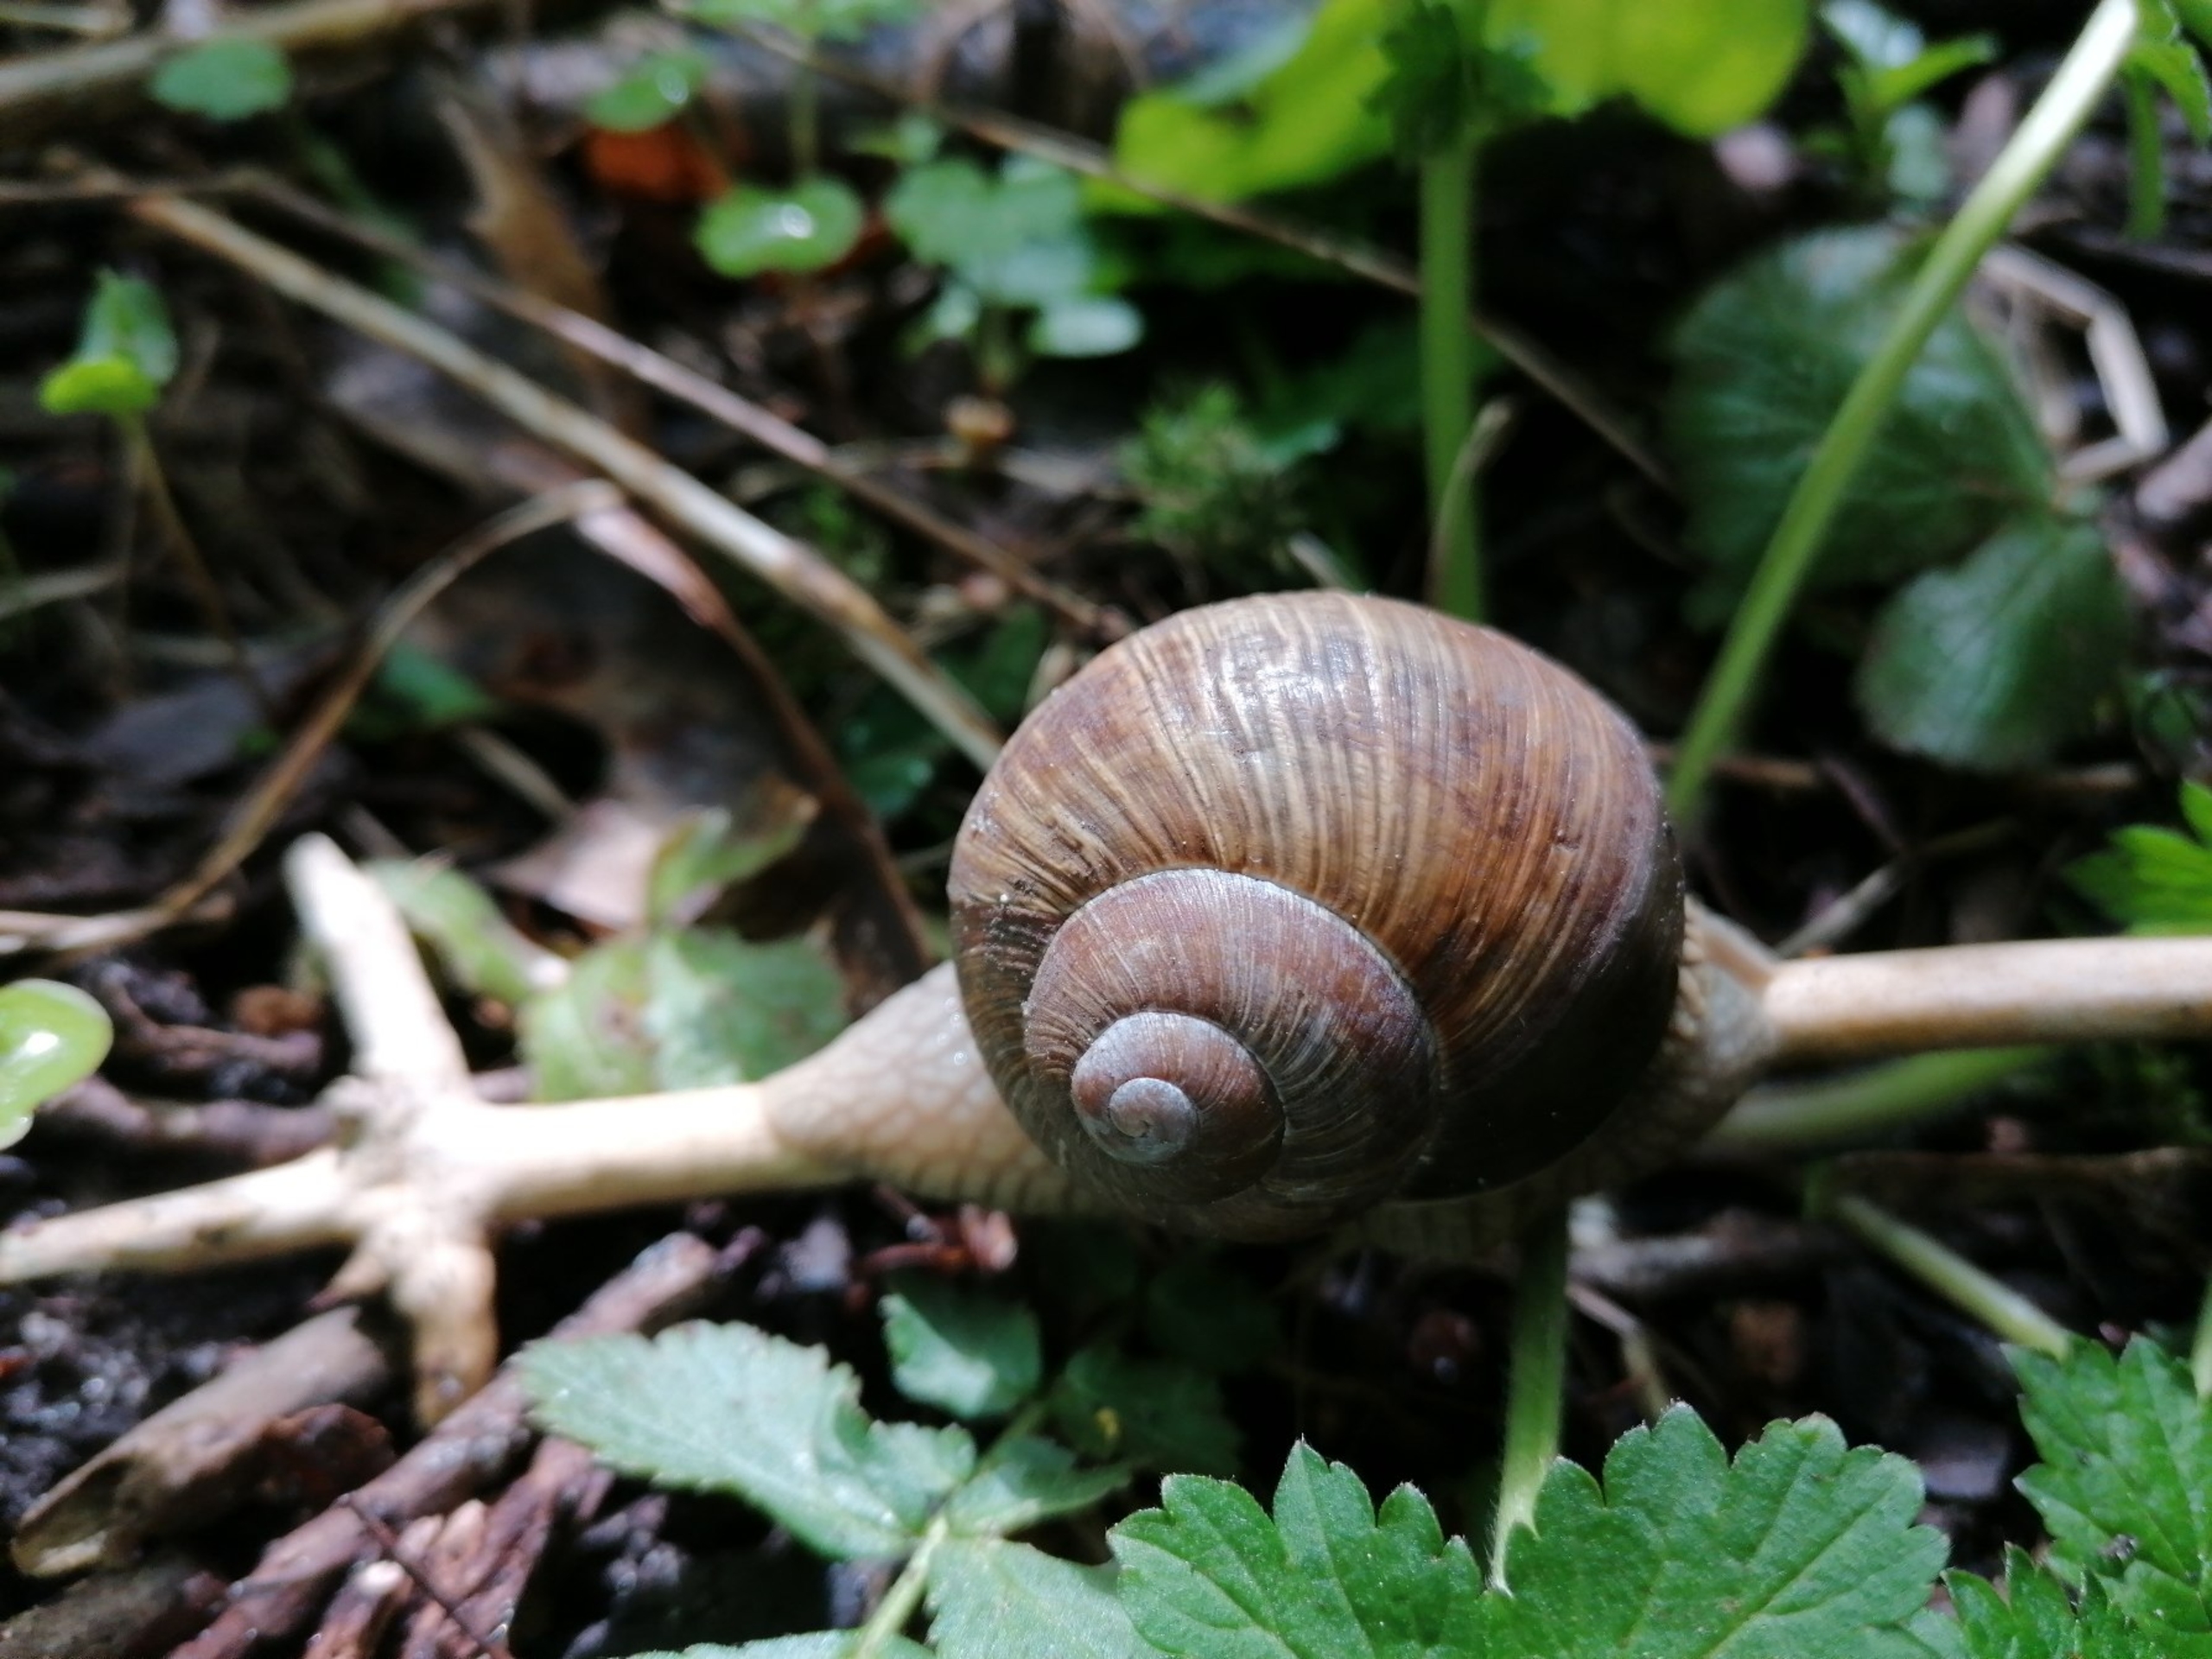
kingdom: Animalia
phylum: Mollusca
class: Gastropoda
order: Stylommatophora
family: Helicidae
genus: Helix
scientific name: Helix pomatia
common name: Vinbjergsnegl
